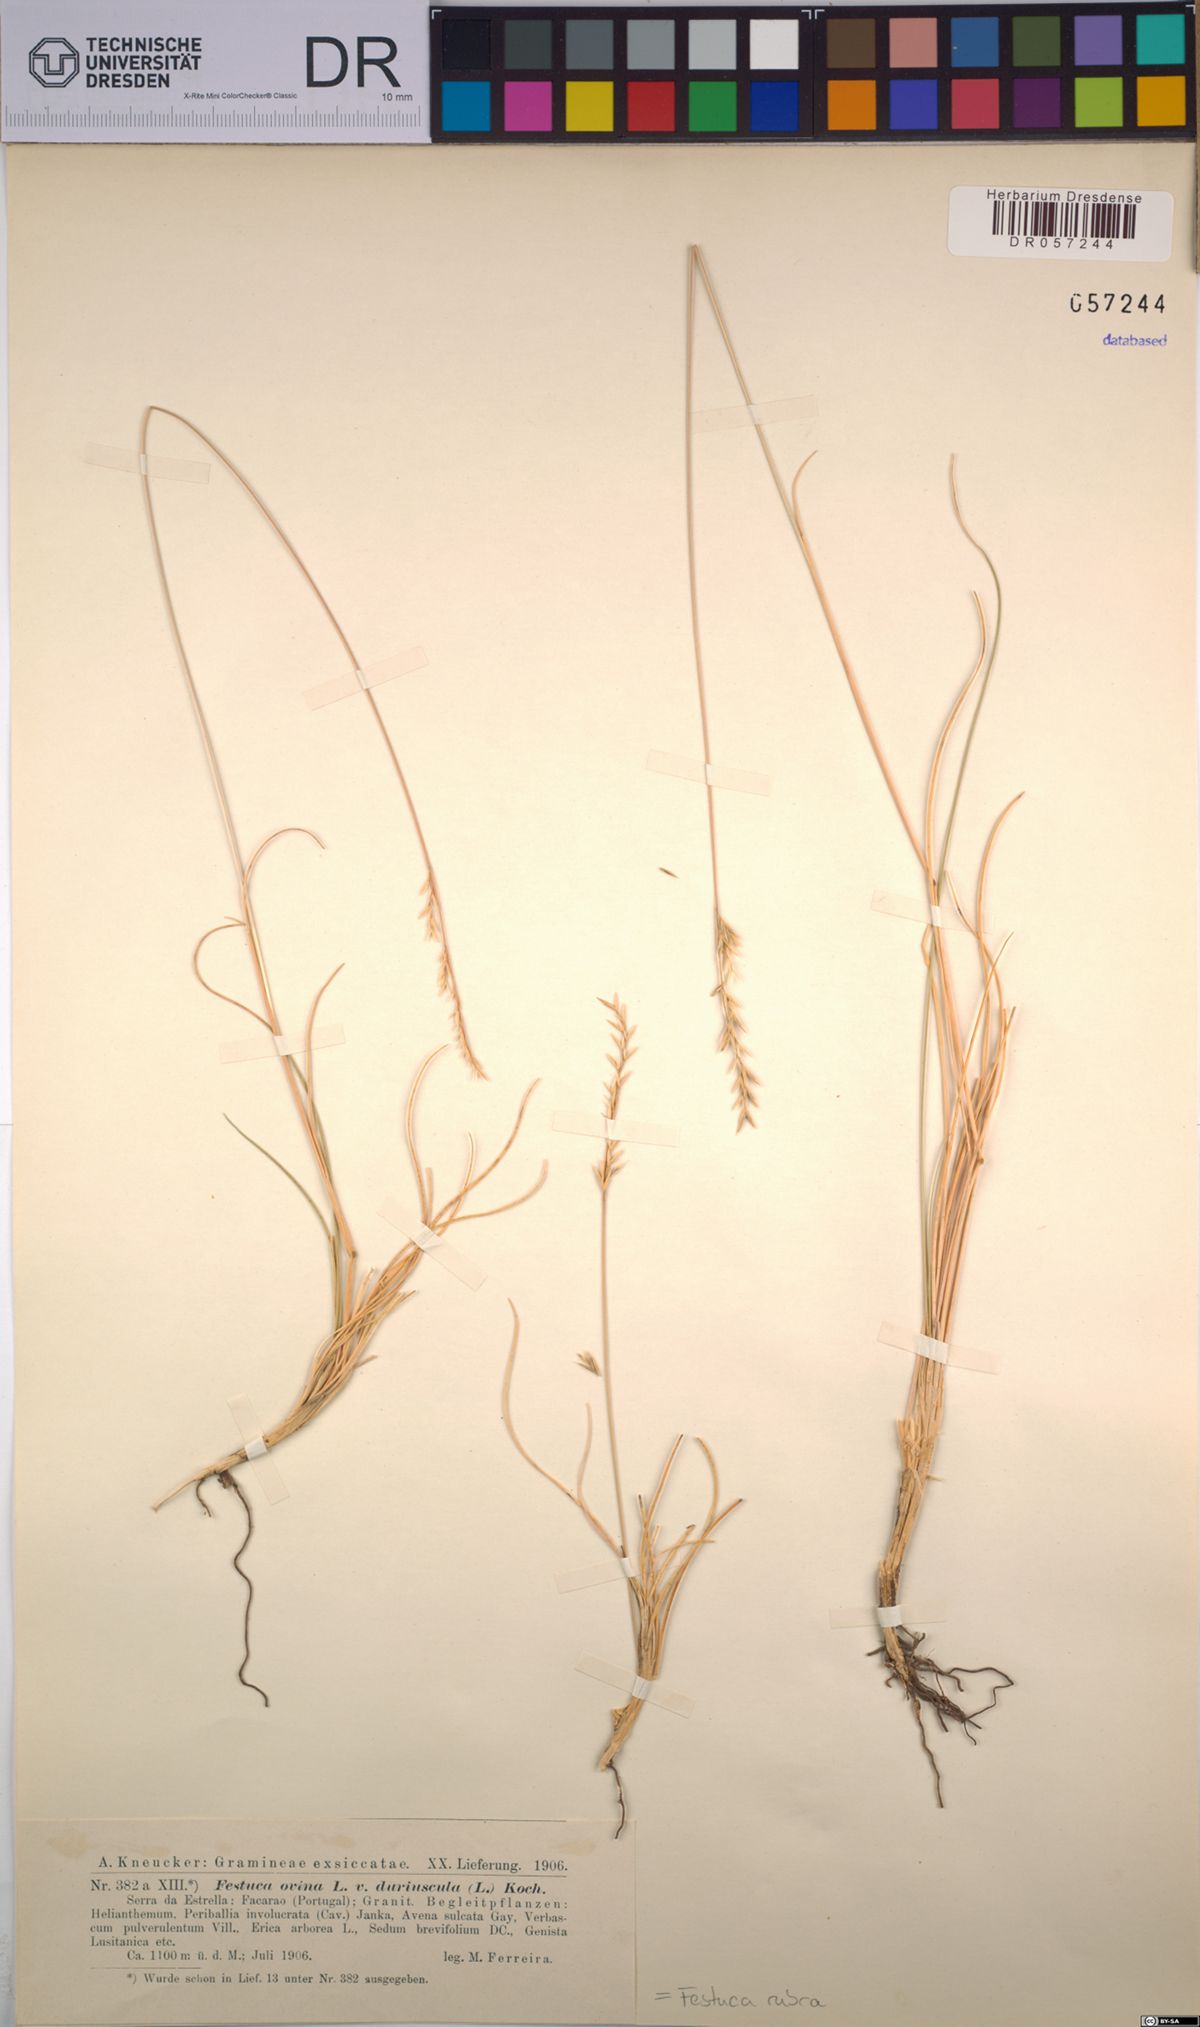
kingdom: Plantae
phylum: Tracheophyta
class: Liliopsida
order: Poales
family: Poaceae
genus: Festuca
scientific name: Festuca rubra
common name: Red fescue
